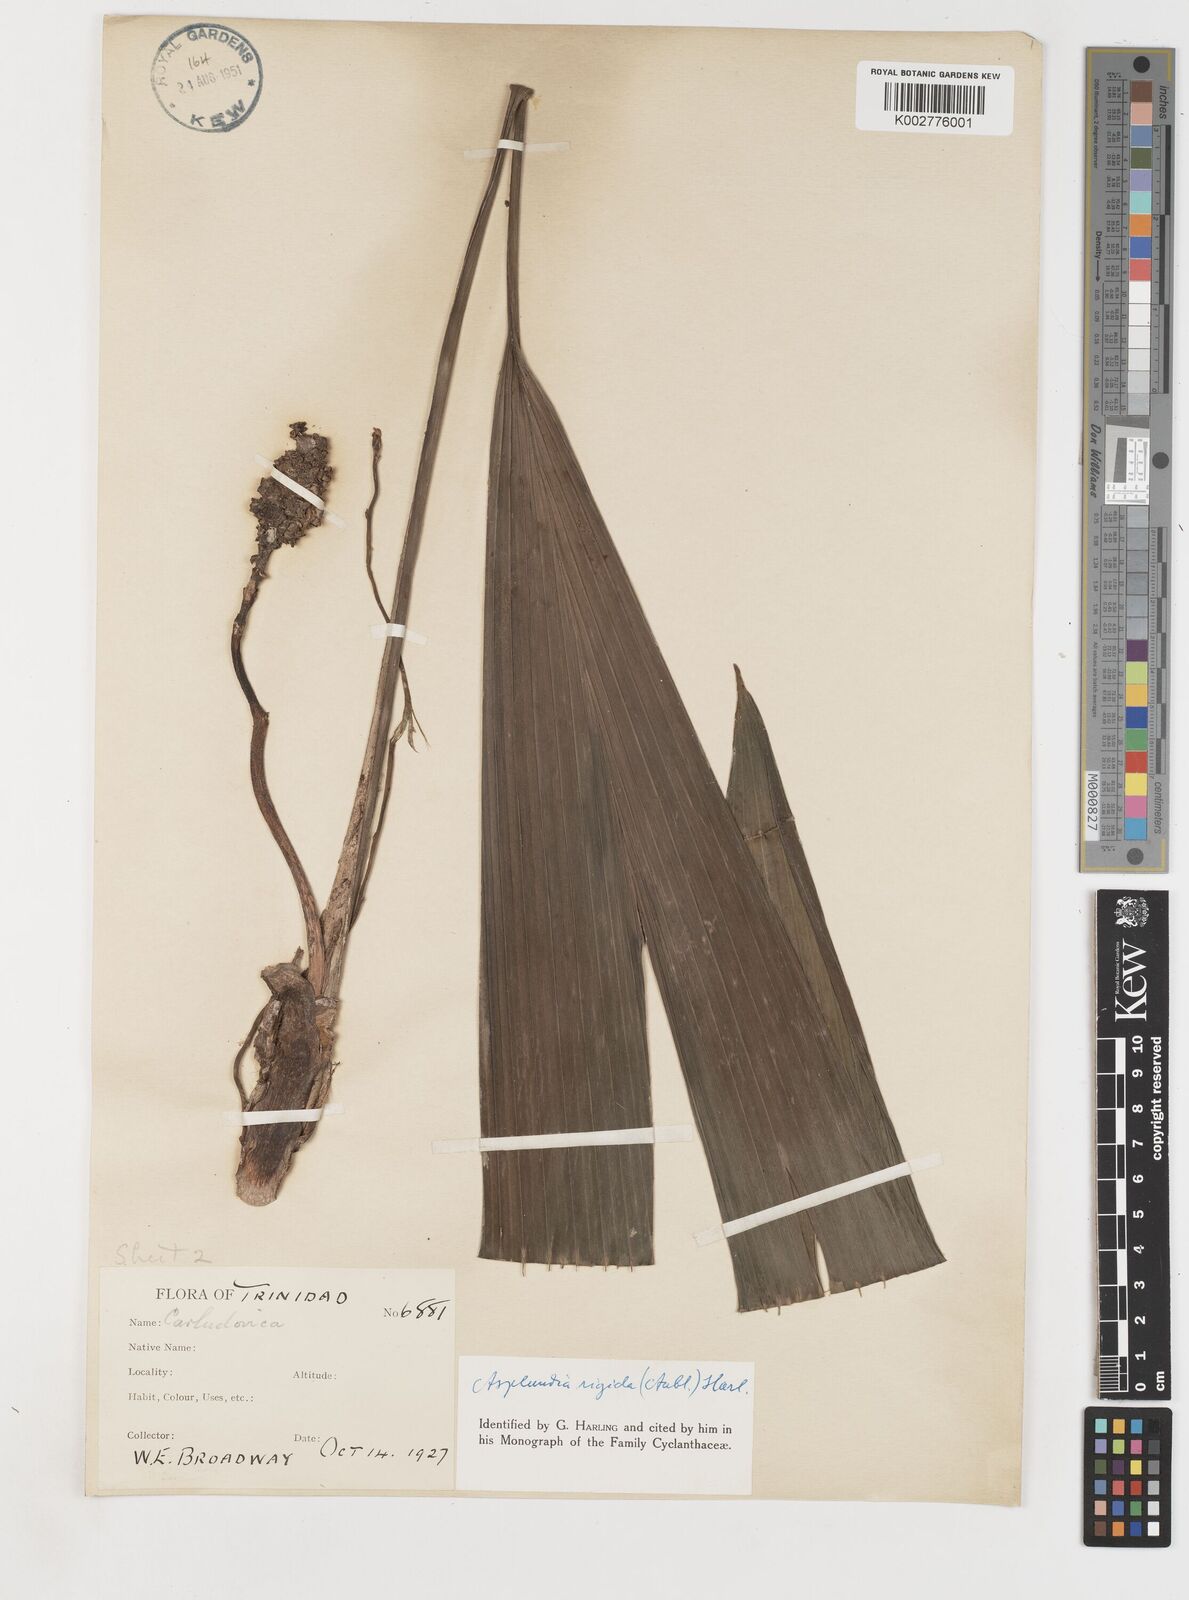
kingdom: Plantae
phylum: Tracheophyta
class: Liliopsida
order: Pandanales
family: Cyclanthaceae
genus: Asplundia
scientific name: Asplundia rigida
